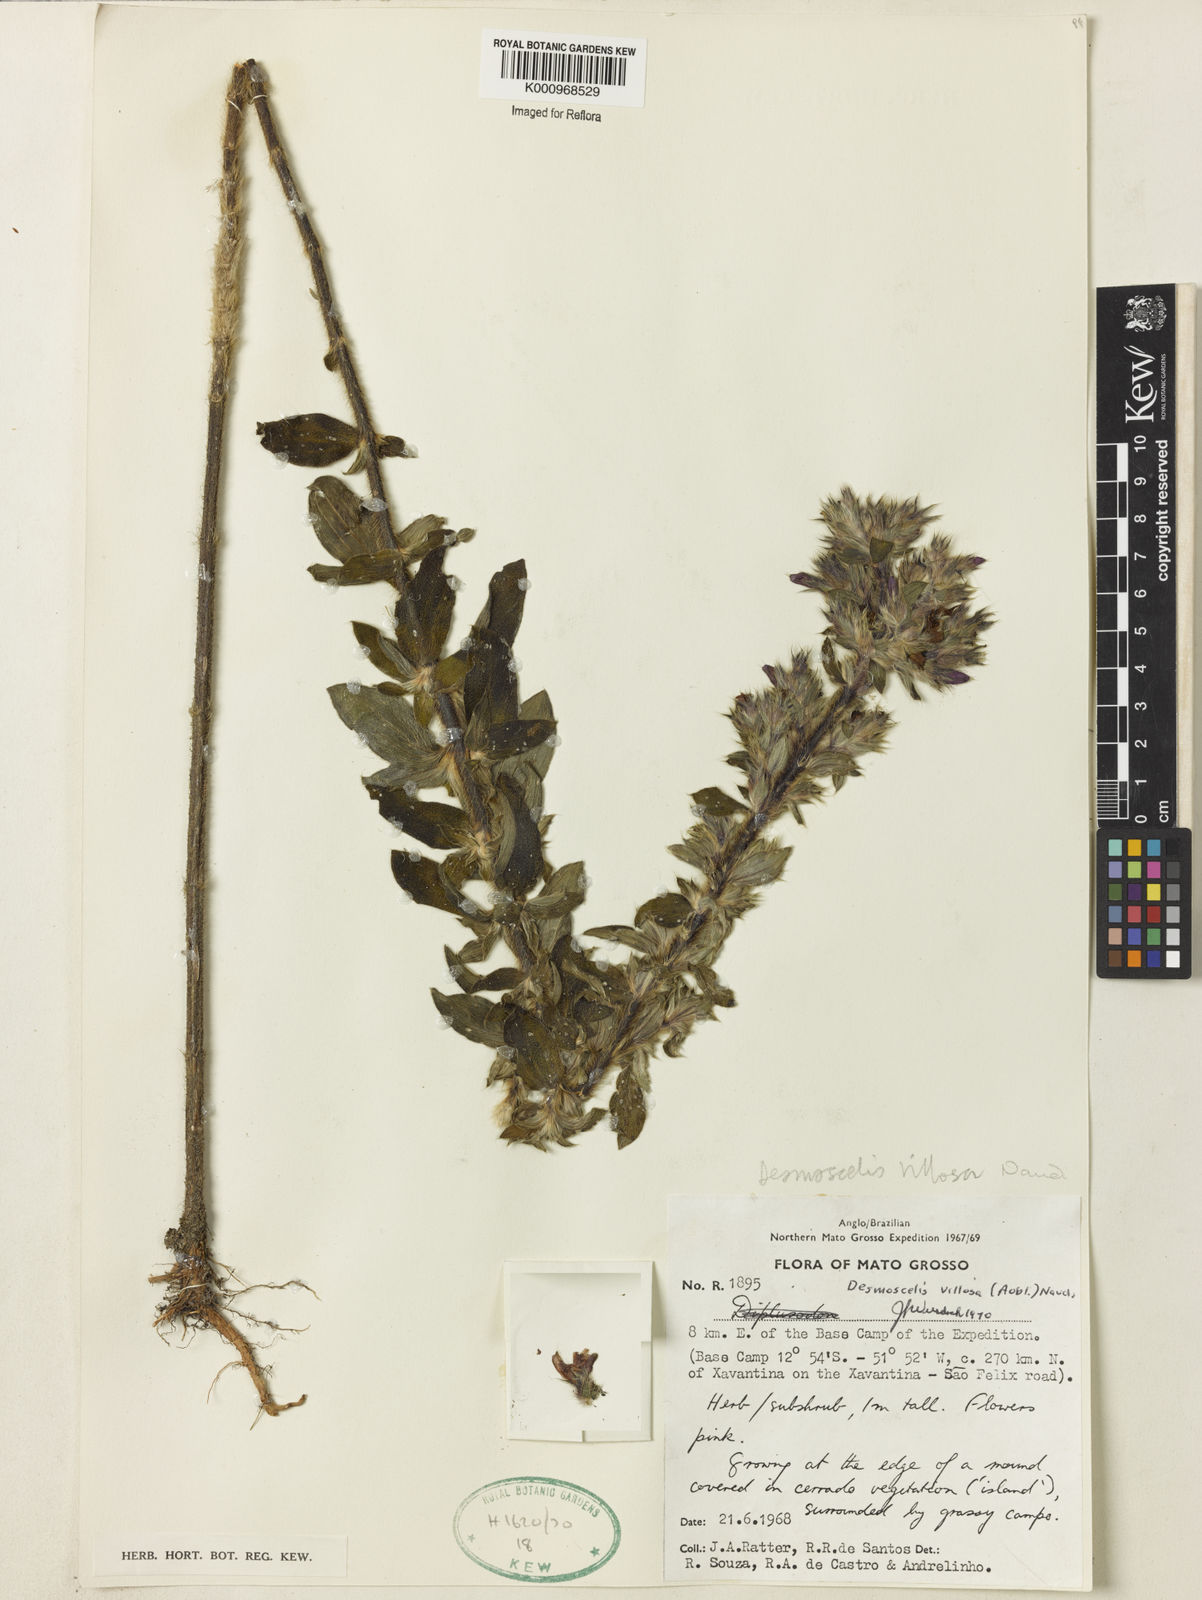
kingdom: Plantae
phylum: Tracheophyta
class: Magnoliopsida
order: Myrtales
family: Melastomataceae
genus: Desmoscelis
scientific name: Desmoscelis villosa
